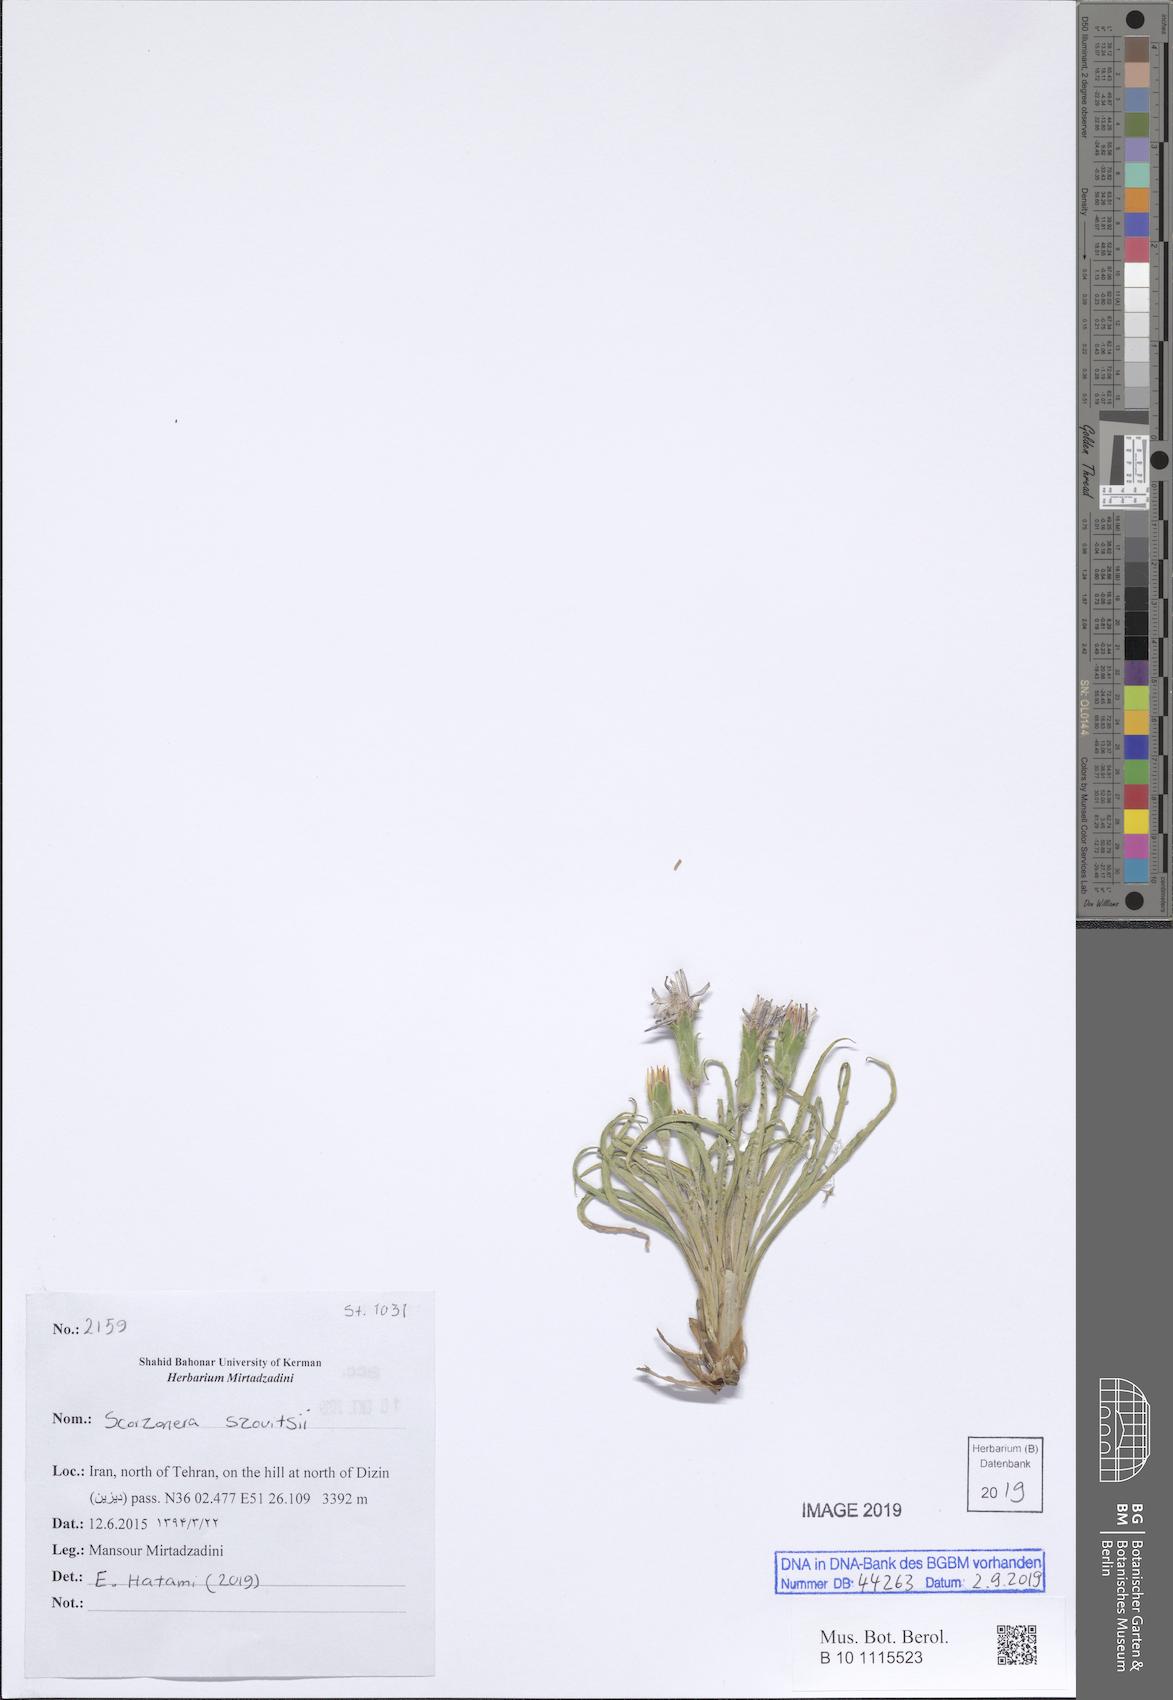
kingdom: Plantae
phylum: Tracheophyta
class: Magnoliopsida
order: Asterales
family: Asteraceae
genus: Candollea
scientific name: Candollea szowitzii
